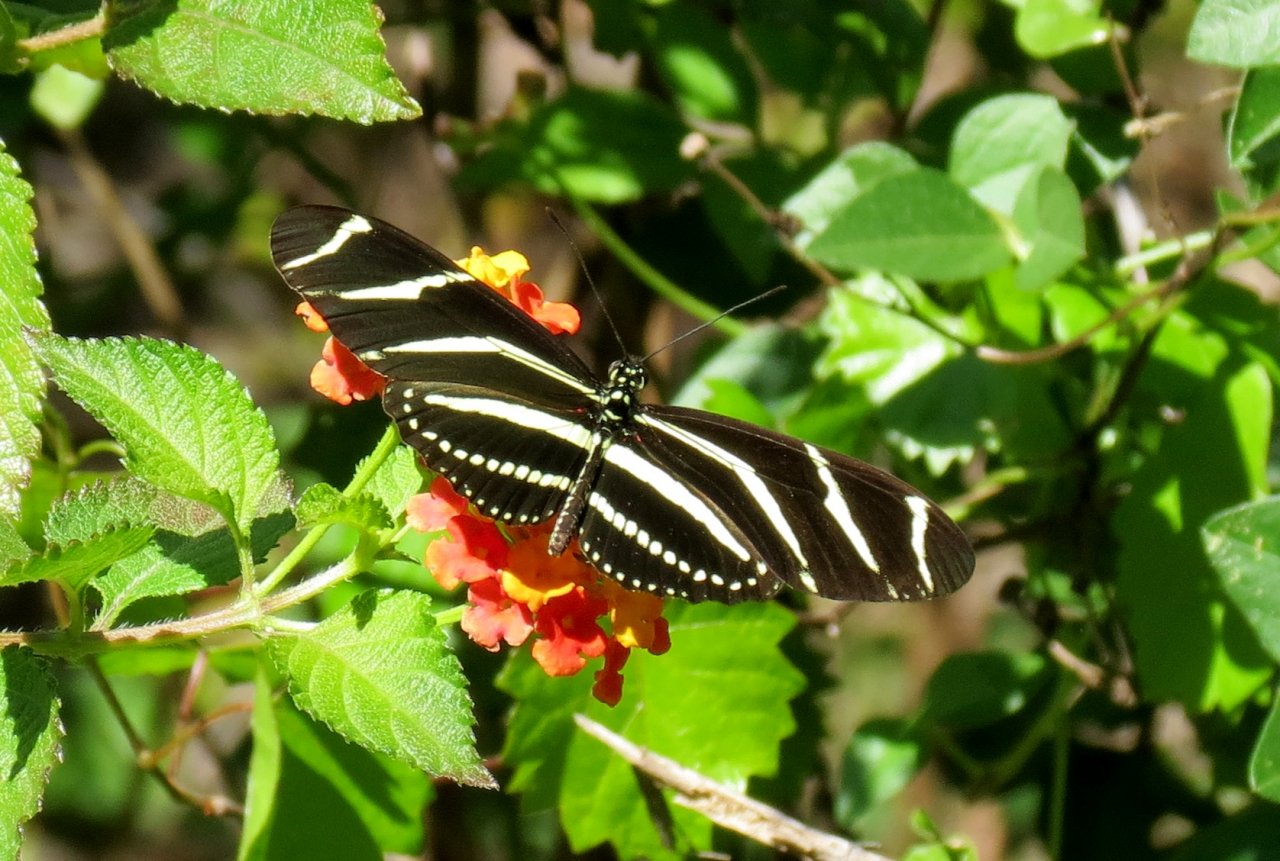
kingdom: Animalia
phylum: Arthropoda
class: Insecta
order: Lepidoptera
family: Nymphalidae
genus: Heliconius
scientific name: Heliconius charithonia
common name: Zebra Longwing
